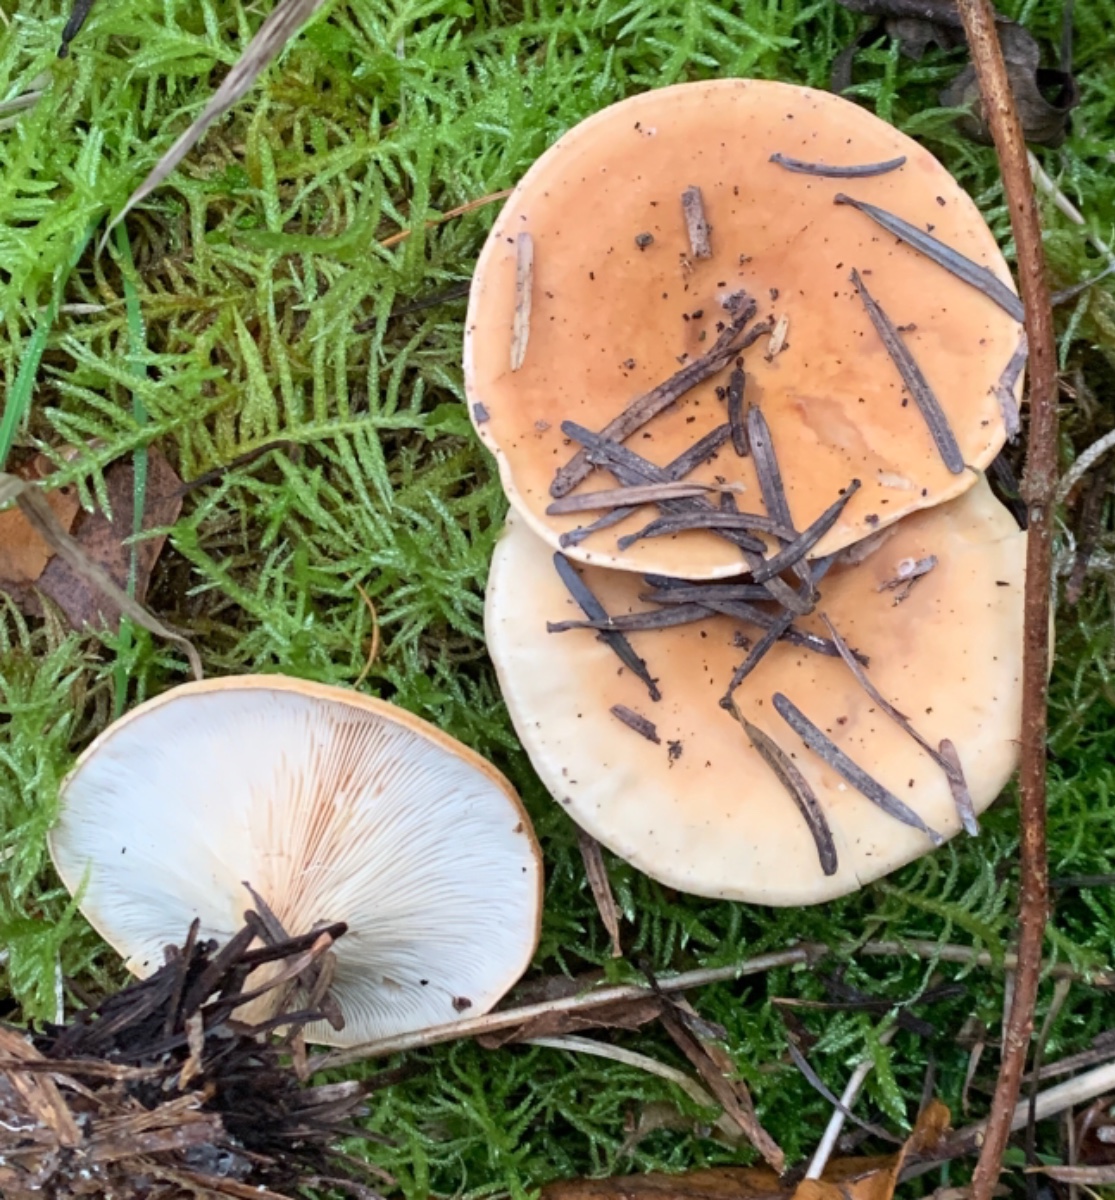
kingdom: Fungi
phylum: Basidiomycota
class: Agaricomycetes
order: Agaricales
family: Tricholomataceae
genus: Paralepista
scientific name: Paralepista flaccida
